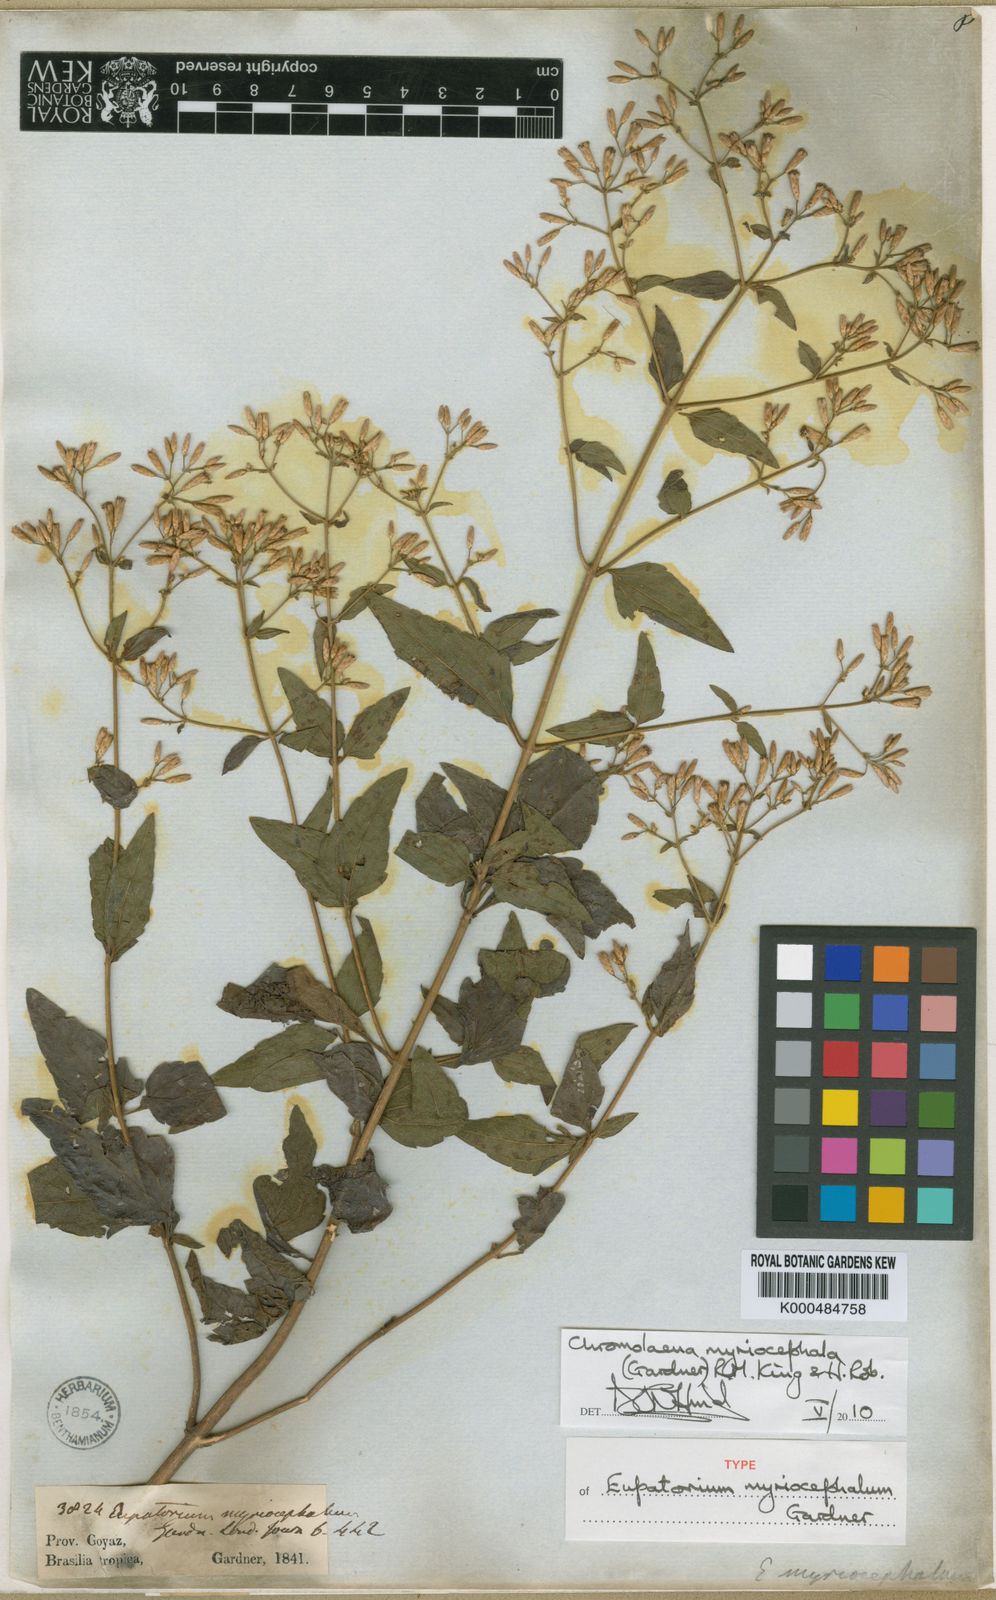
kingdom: Plantae
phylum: Tracheophyta
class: Magnoliopsida
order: Asterales
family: Asteraceae
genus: Chromolaena
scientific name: Chromolaena myriocephala
